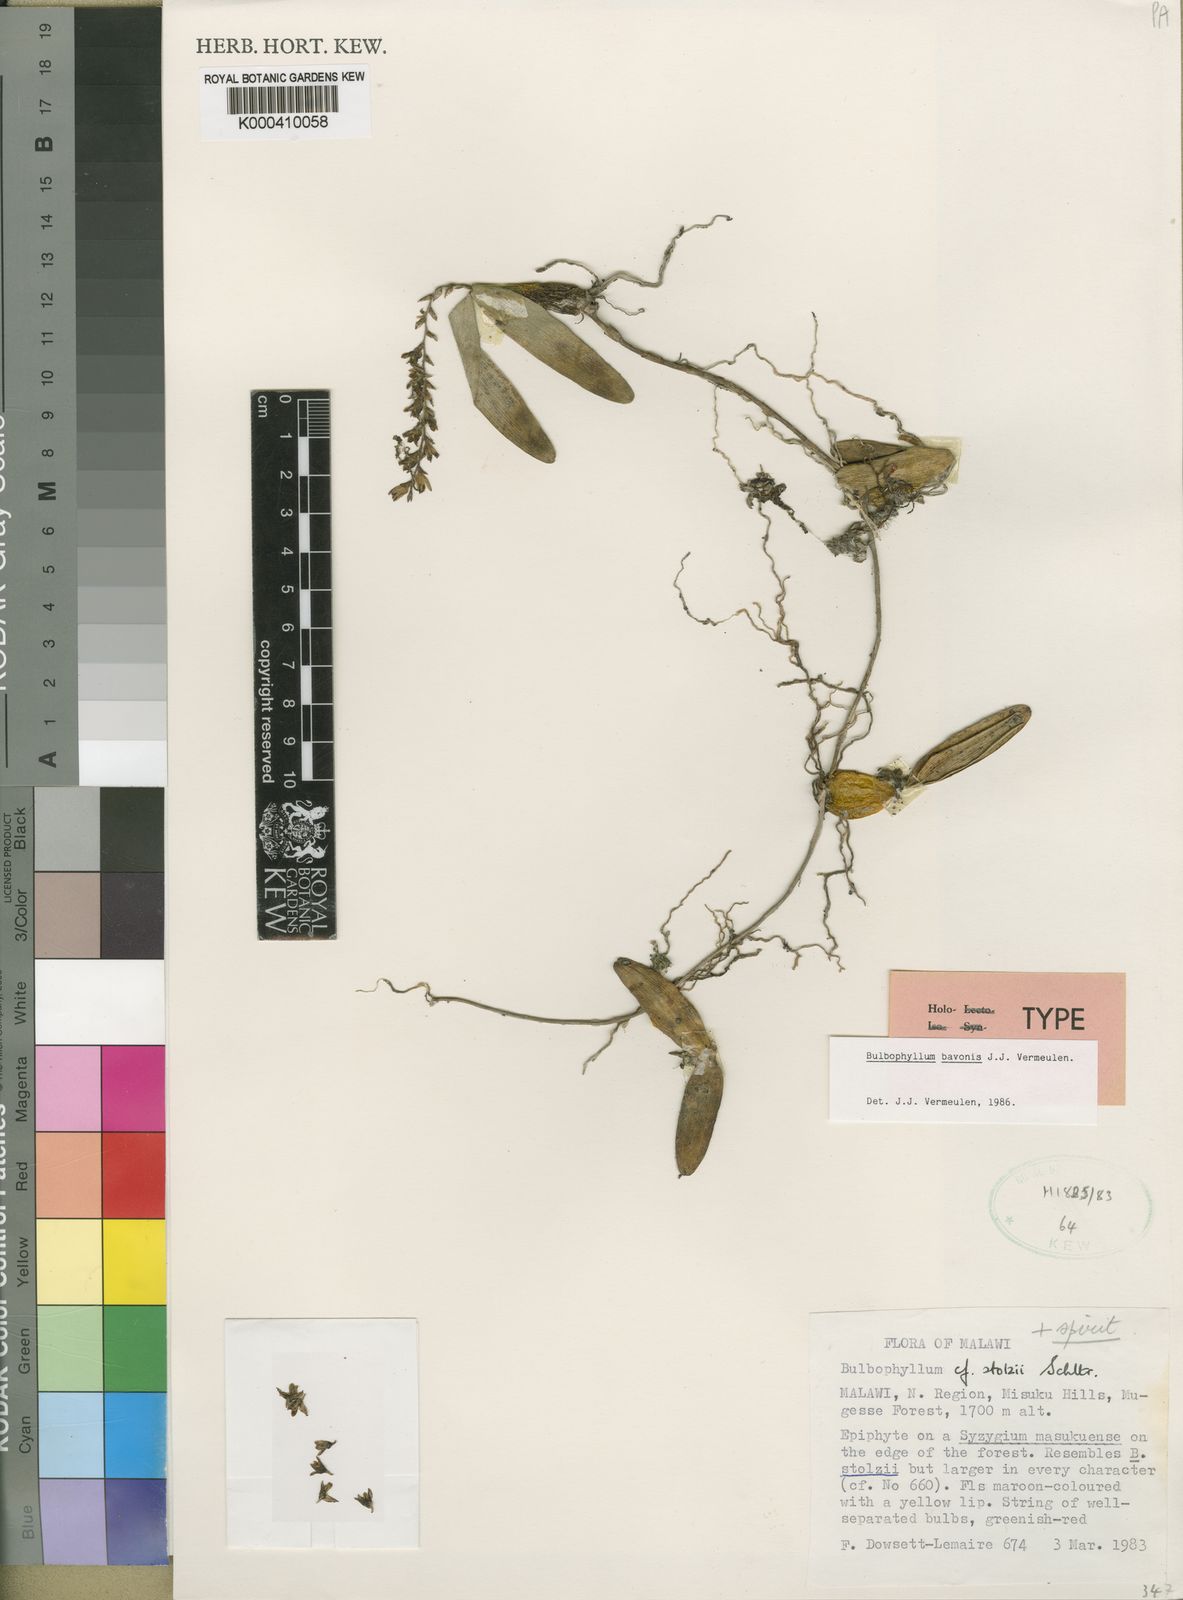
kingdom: Plantae
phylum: Tracheophyta
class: Liliopsida
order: Asparagales
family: Orchidaceae
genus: Bulbophyllum
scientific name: Bulbophyllum bavonis
